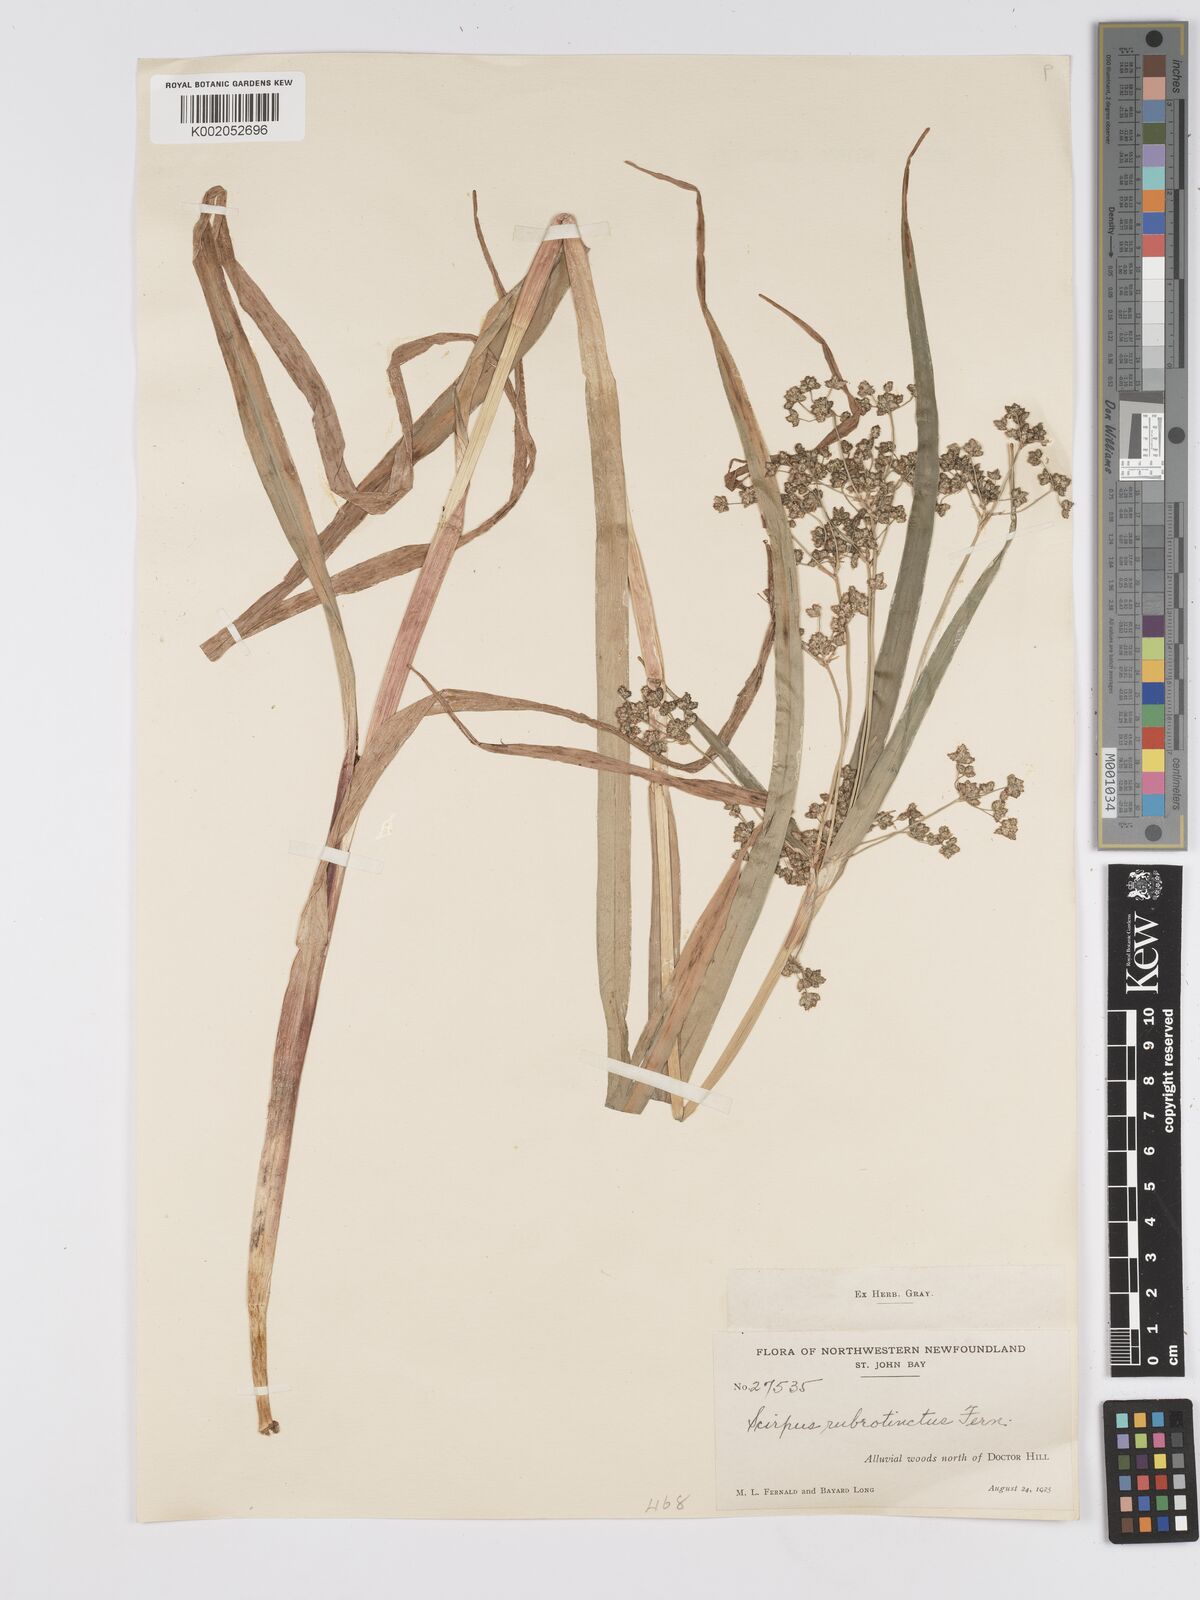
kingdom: Plantae
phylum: Tracheophyta
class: Liliopsida
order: Poales
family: Cyperaceae
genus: Scirpus
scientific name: Scirpus microcarpus
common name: Panicled bulrush
